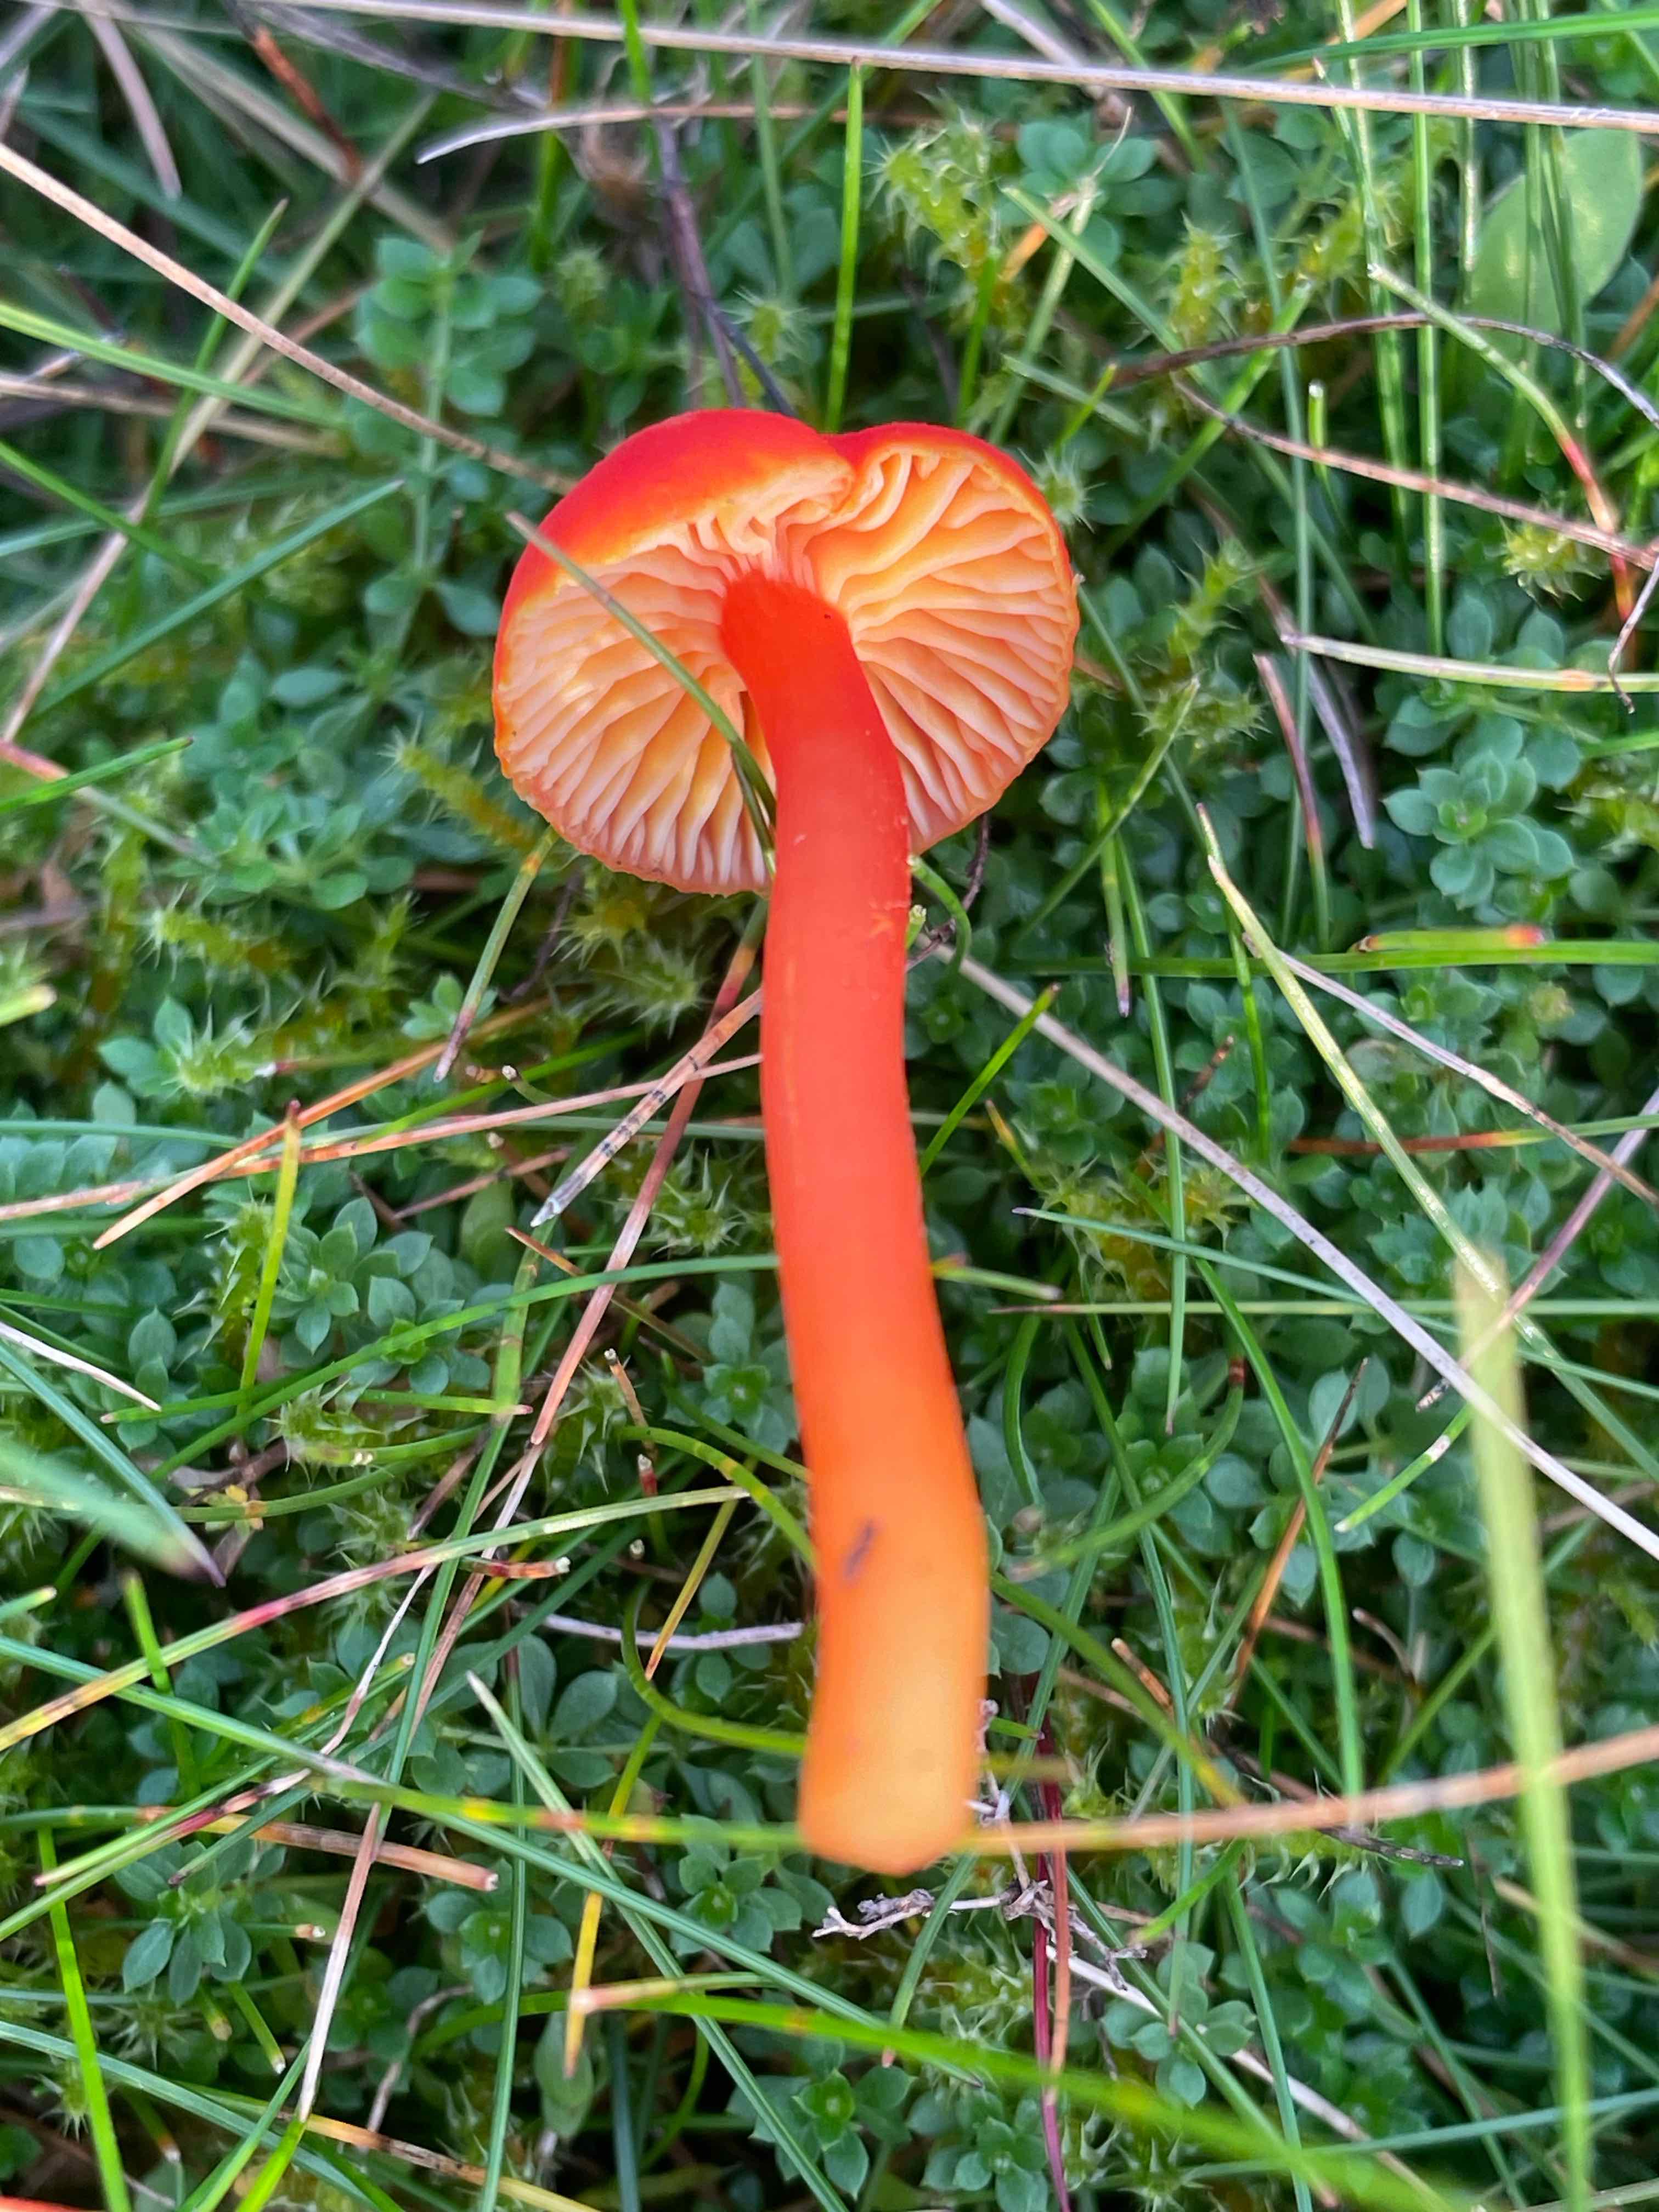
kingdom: Fungi
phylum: Basidiomycota
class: Agaricomycetes
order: Agaricales
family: Hygrophoraceae
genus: Hygrocybe
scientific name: Hygrocybe miniata
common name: mønje-vokshat
